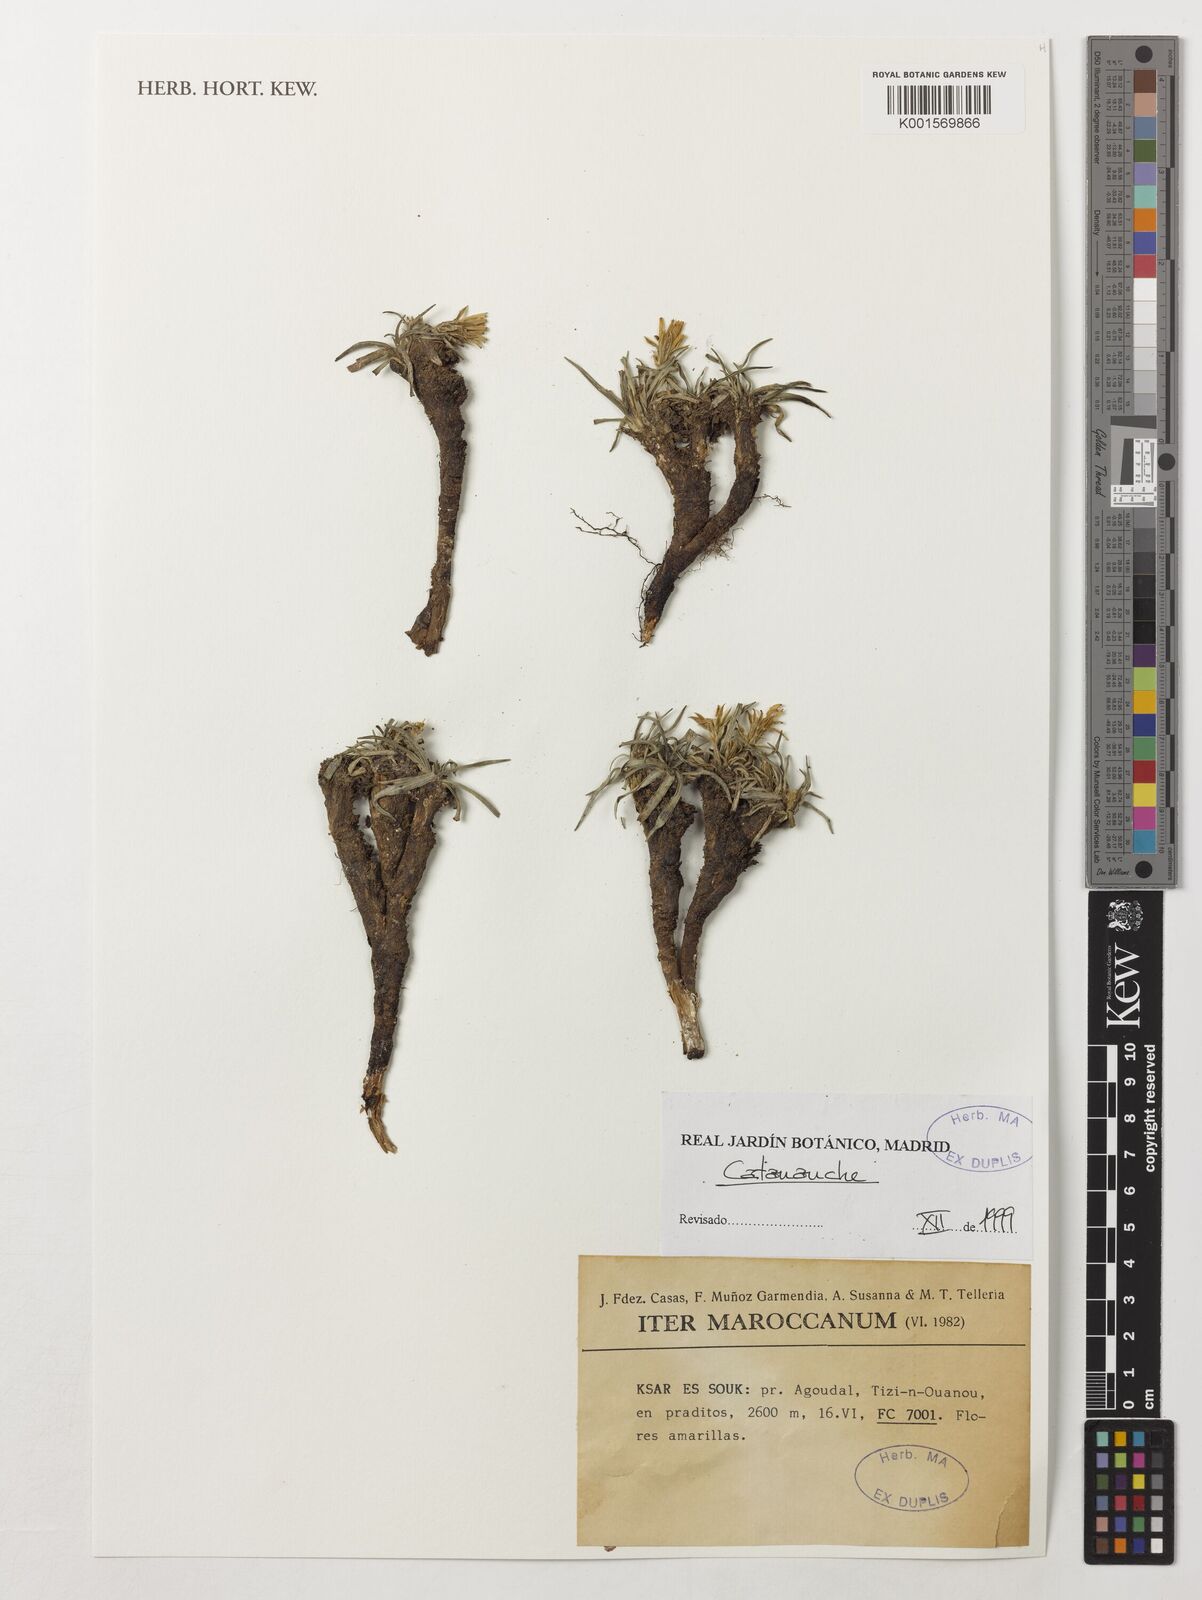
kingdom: Plantae
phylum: Tracheophyta
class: Magnoliopsida
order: Asterales
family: Asteraceae
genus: Catananche
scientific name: Catananche
